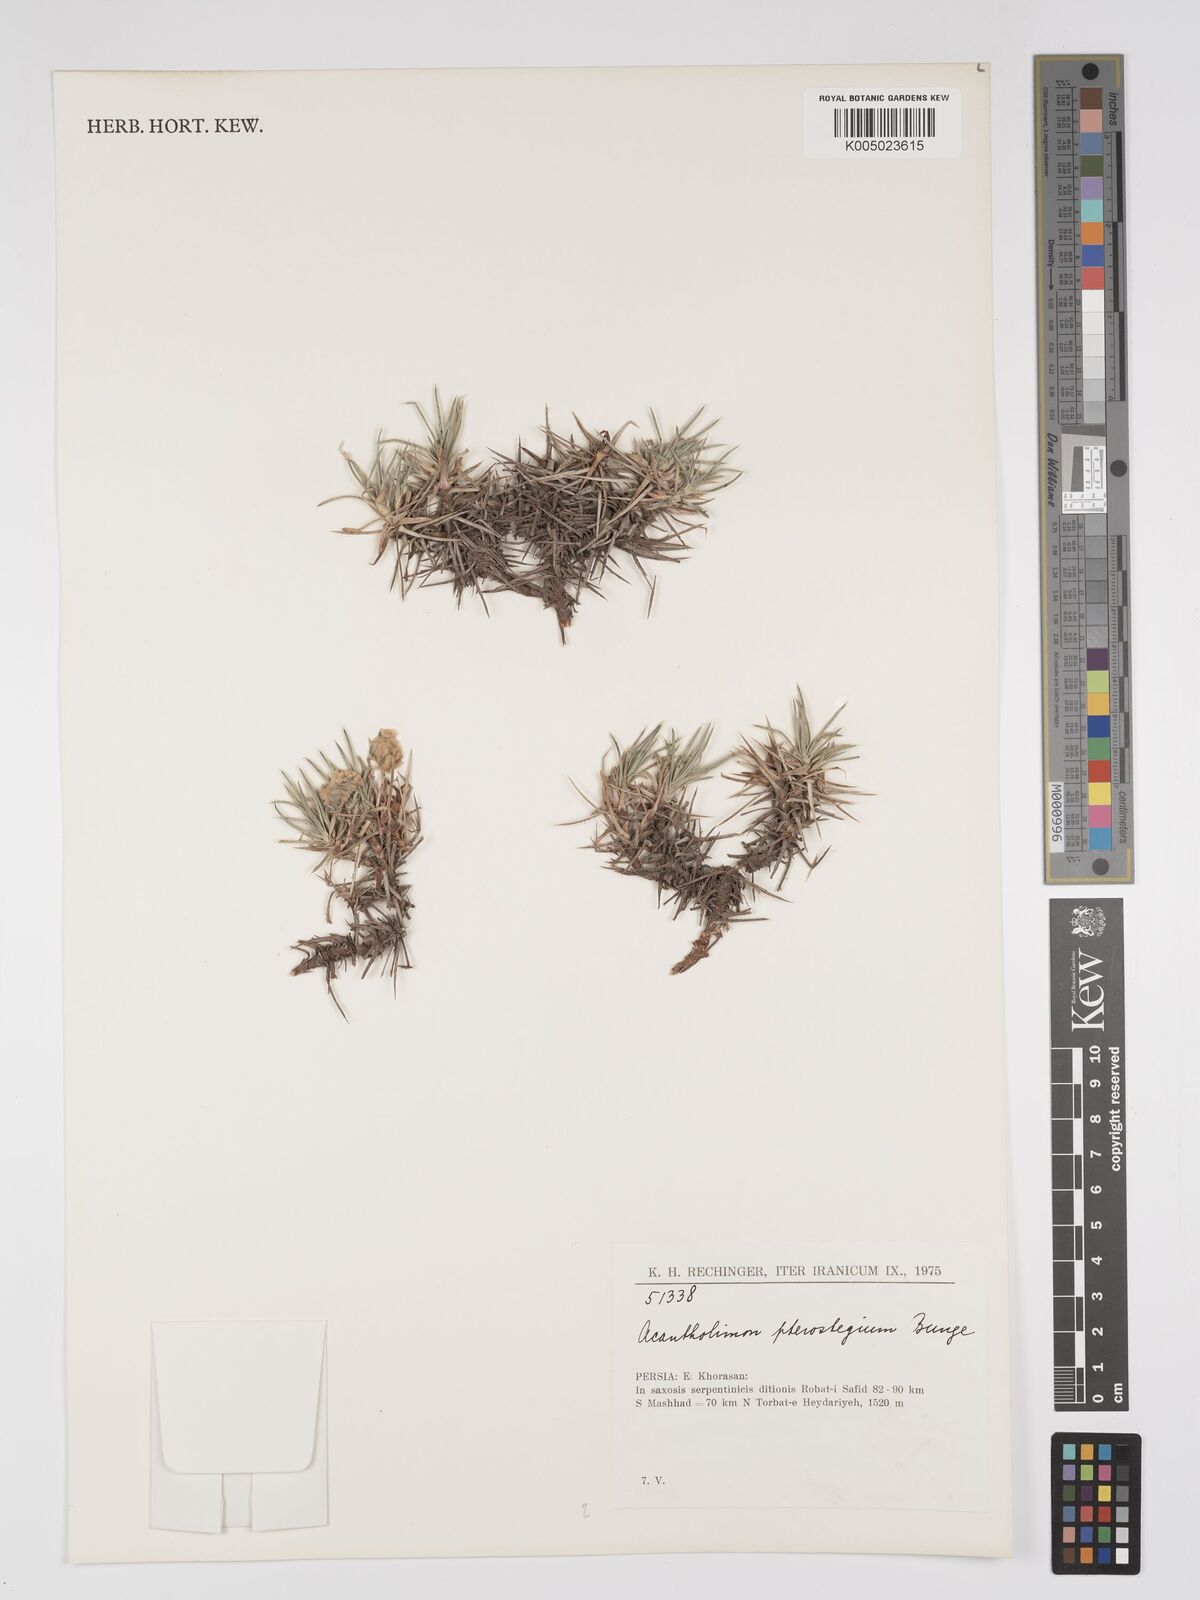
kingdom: Plantae
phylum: Tracheophyta
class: Magnoliopsida
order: Caryophyllales
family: Plumbaginaceae
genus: Acantholimon
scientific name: Acantholimon pterostegium
